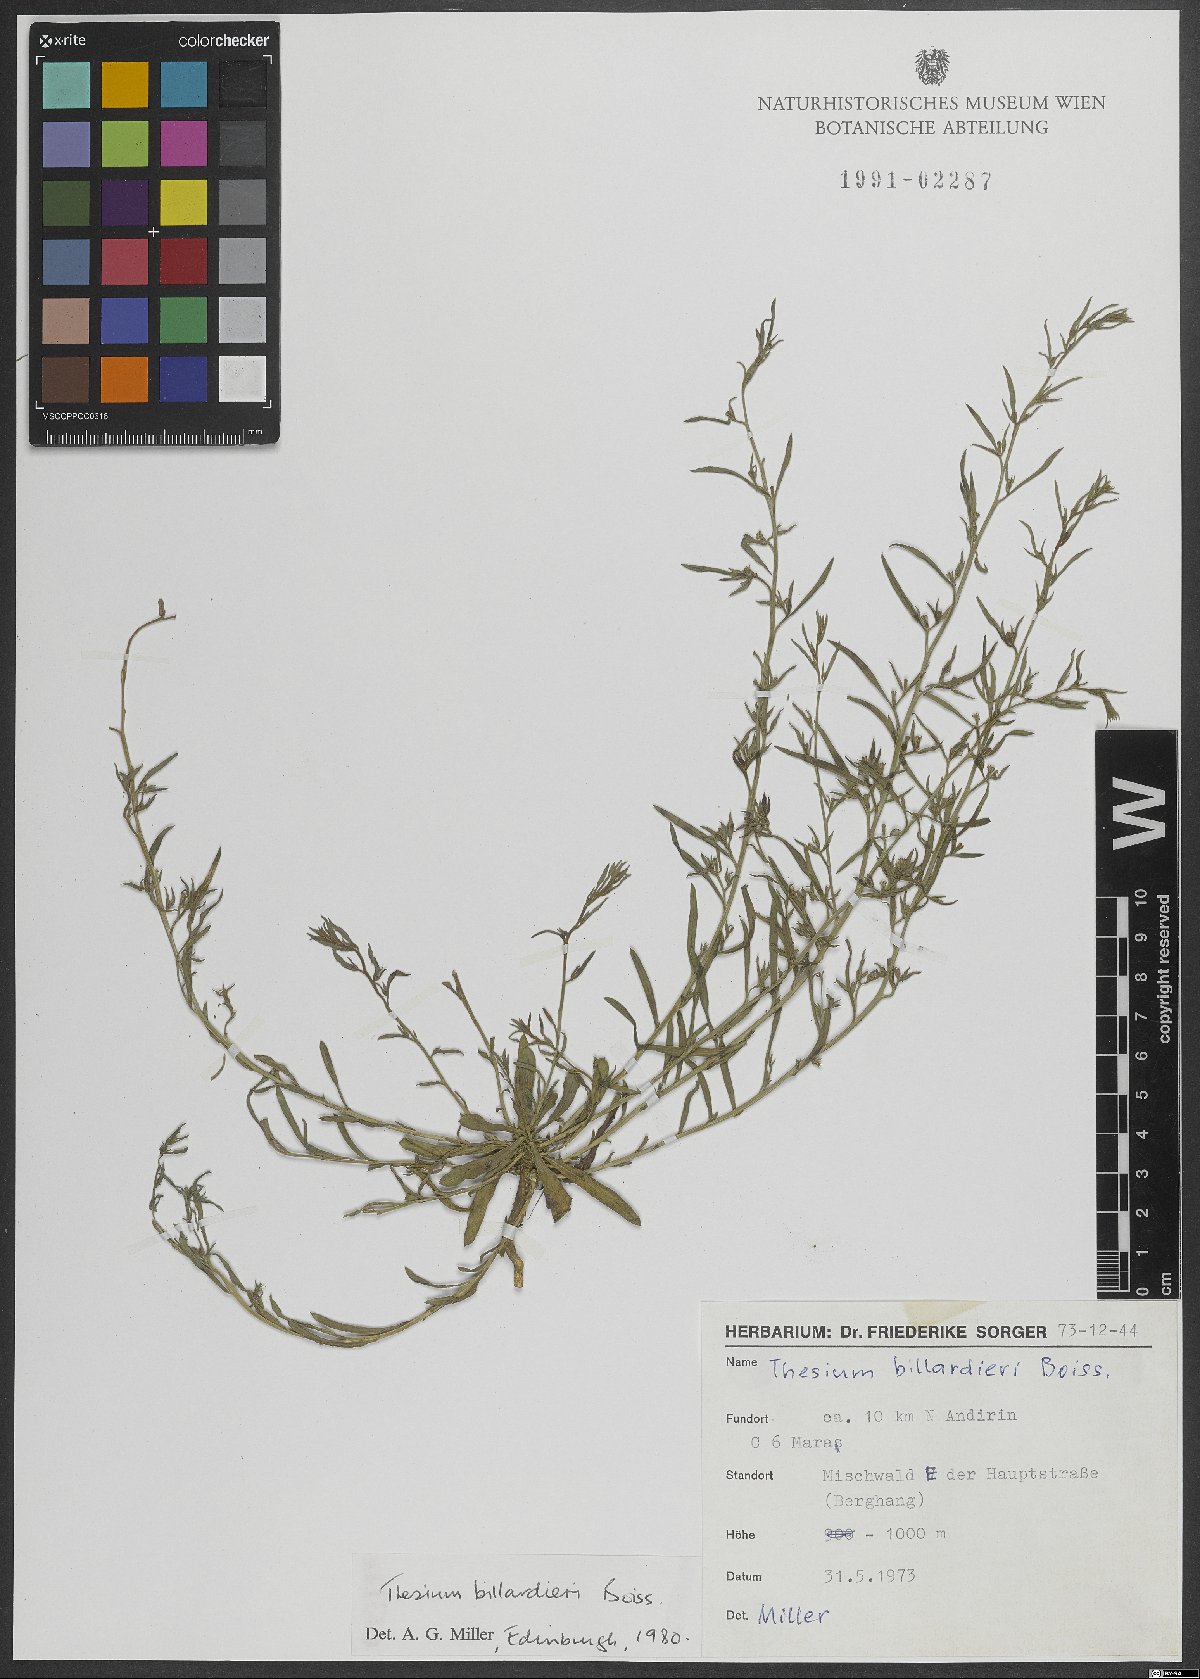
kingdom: Plantae
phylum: Tracheophyta
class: Magnoliopsida
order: Santalales
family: Thesiaceae
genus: Thesium
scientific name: Thesium billardierei
